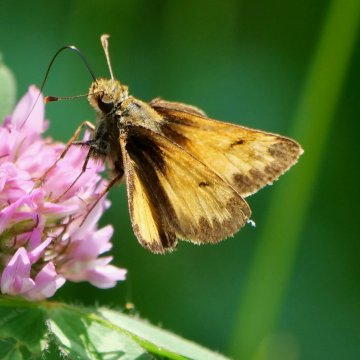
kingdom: Animalia
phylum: Arthropoda
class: Insecta
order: Lepidoptera
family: Hesperiidae
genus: Lon
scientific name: Lon hobomok
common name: Hobomok Skipper
